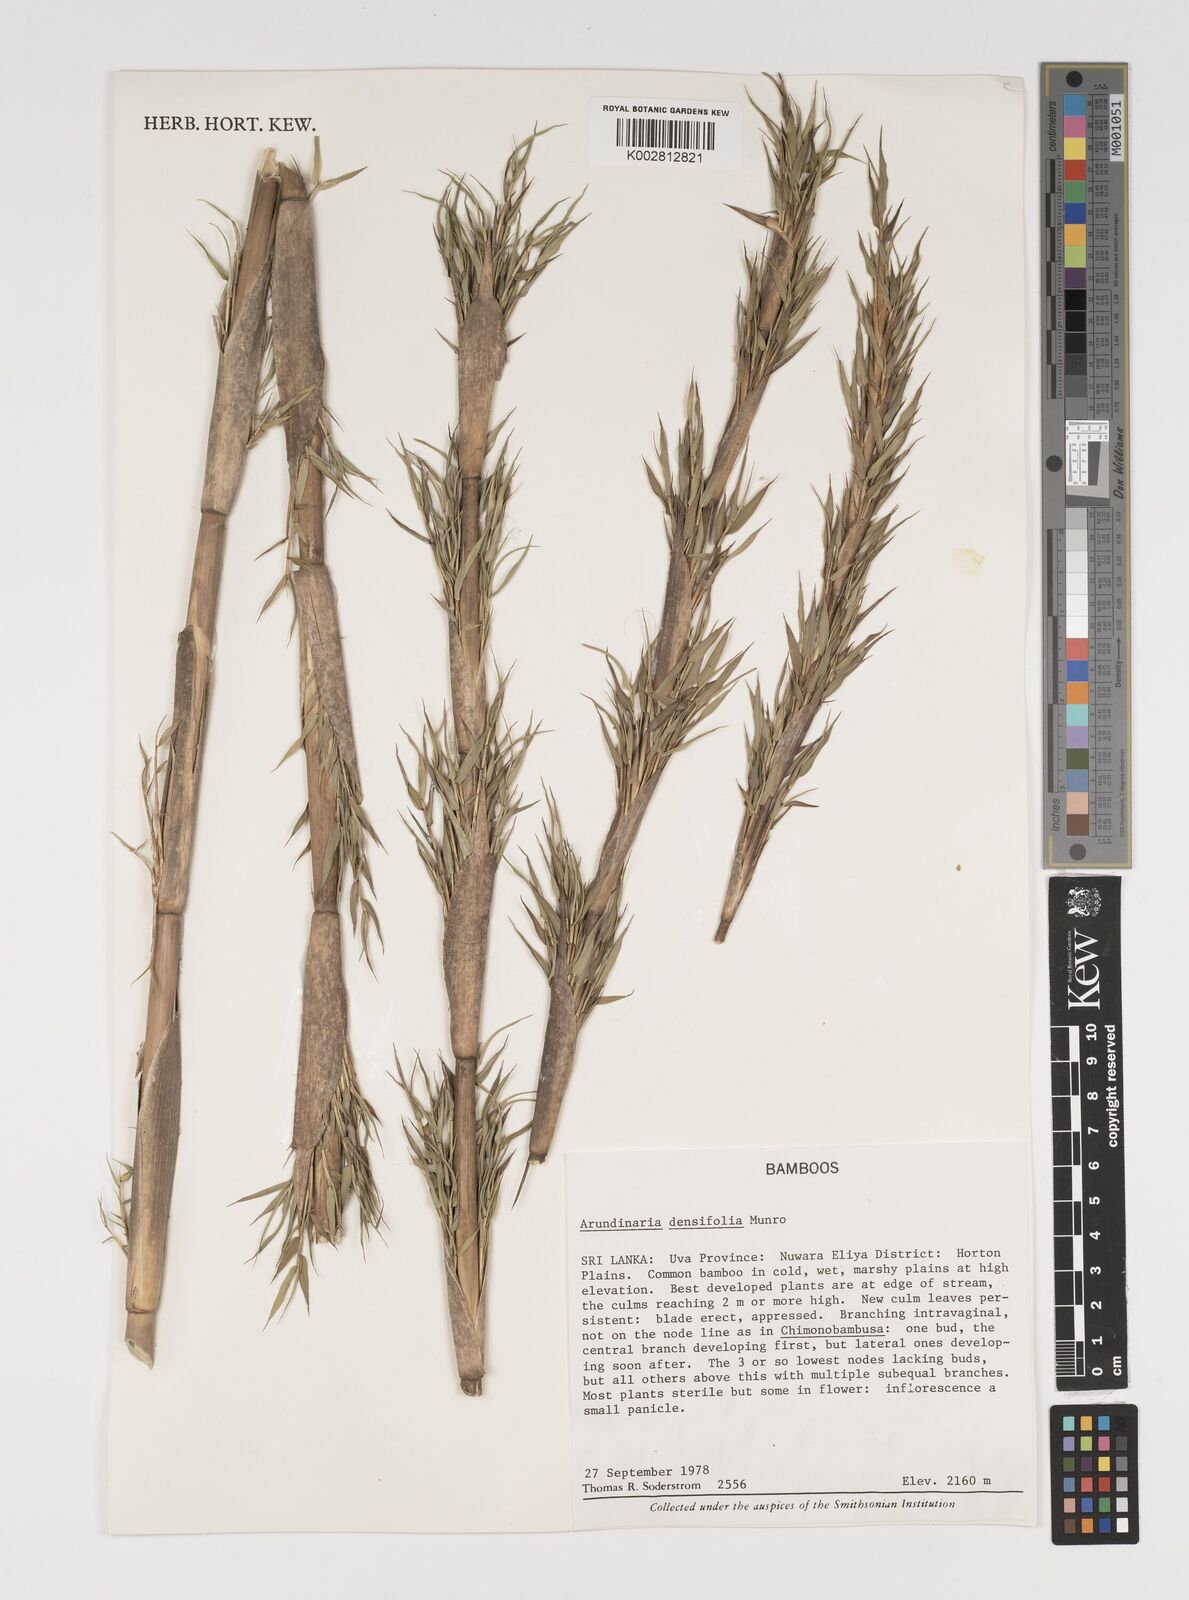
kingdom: Plantae
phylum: Tracheophyta
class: Liliopsida
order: Poales
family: Poaceae
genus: Brachystachyum
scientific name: Brachystachyum densiflorum
